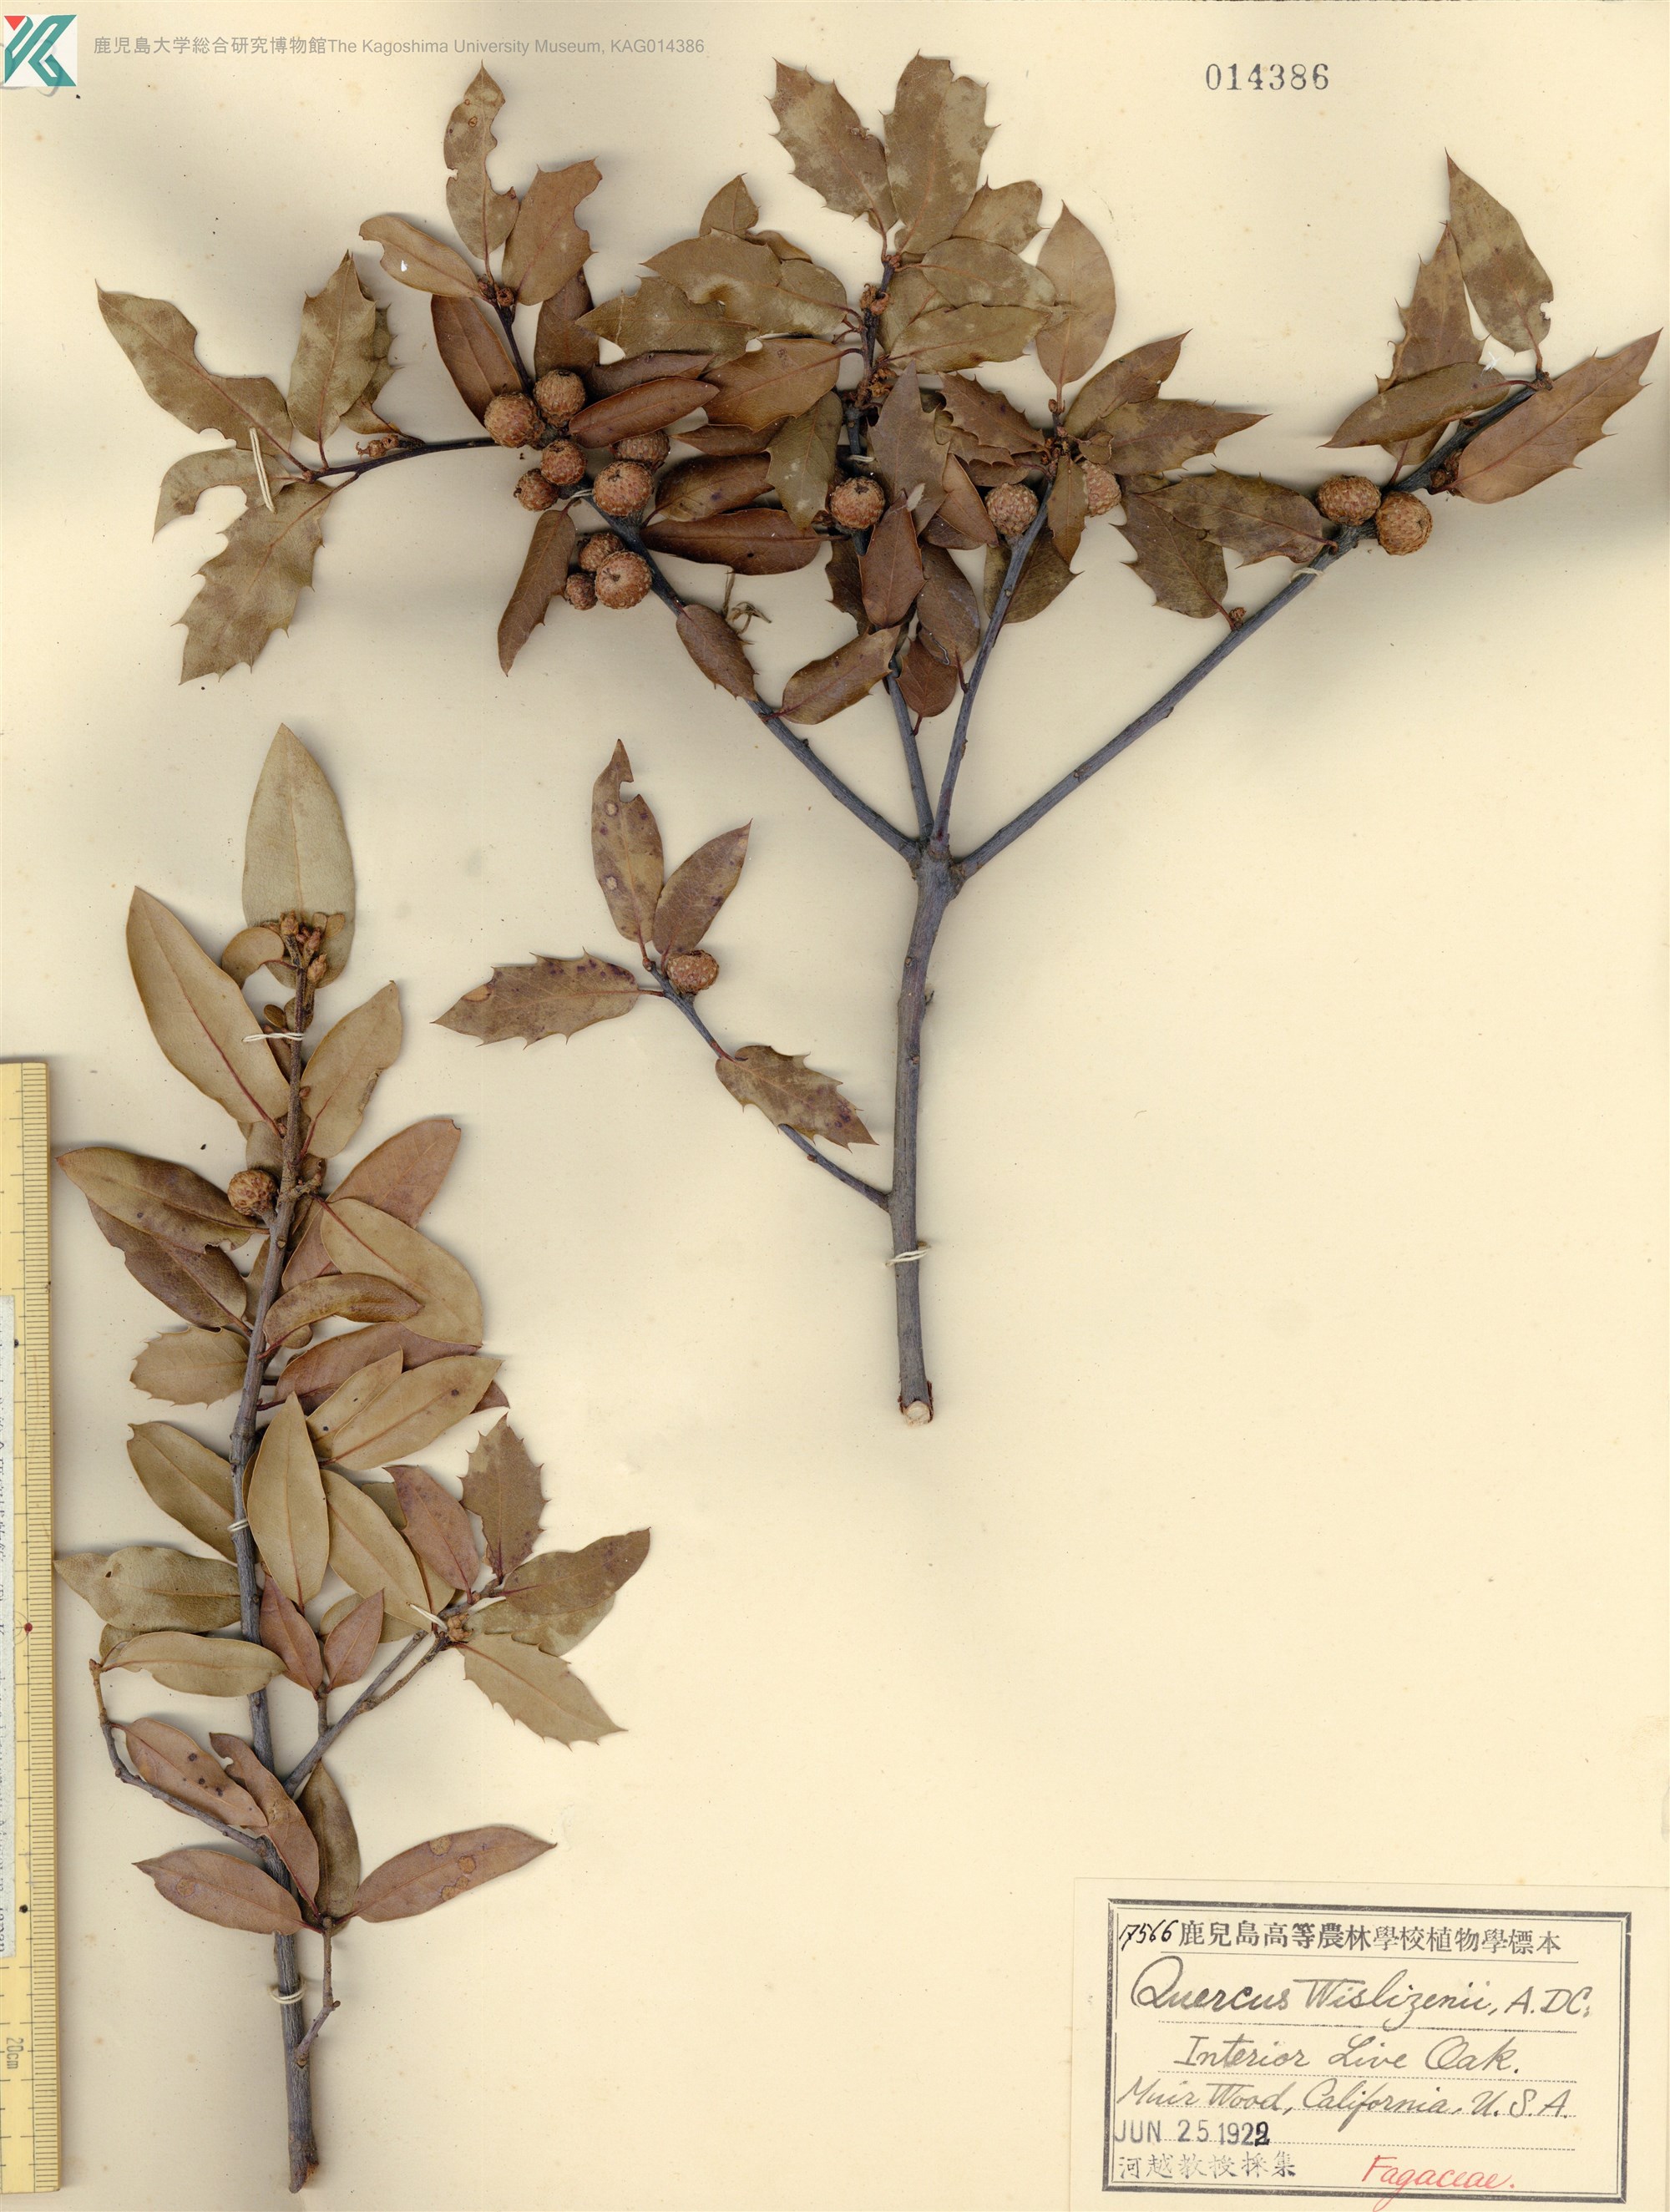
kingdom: Plantae
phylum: Tracheophyta
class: Magnoliopsida
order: Fagales
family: Fagaceae
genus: Quercus
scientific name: Quercus wislizeni
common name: Interior live oak
